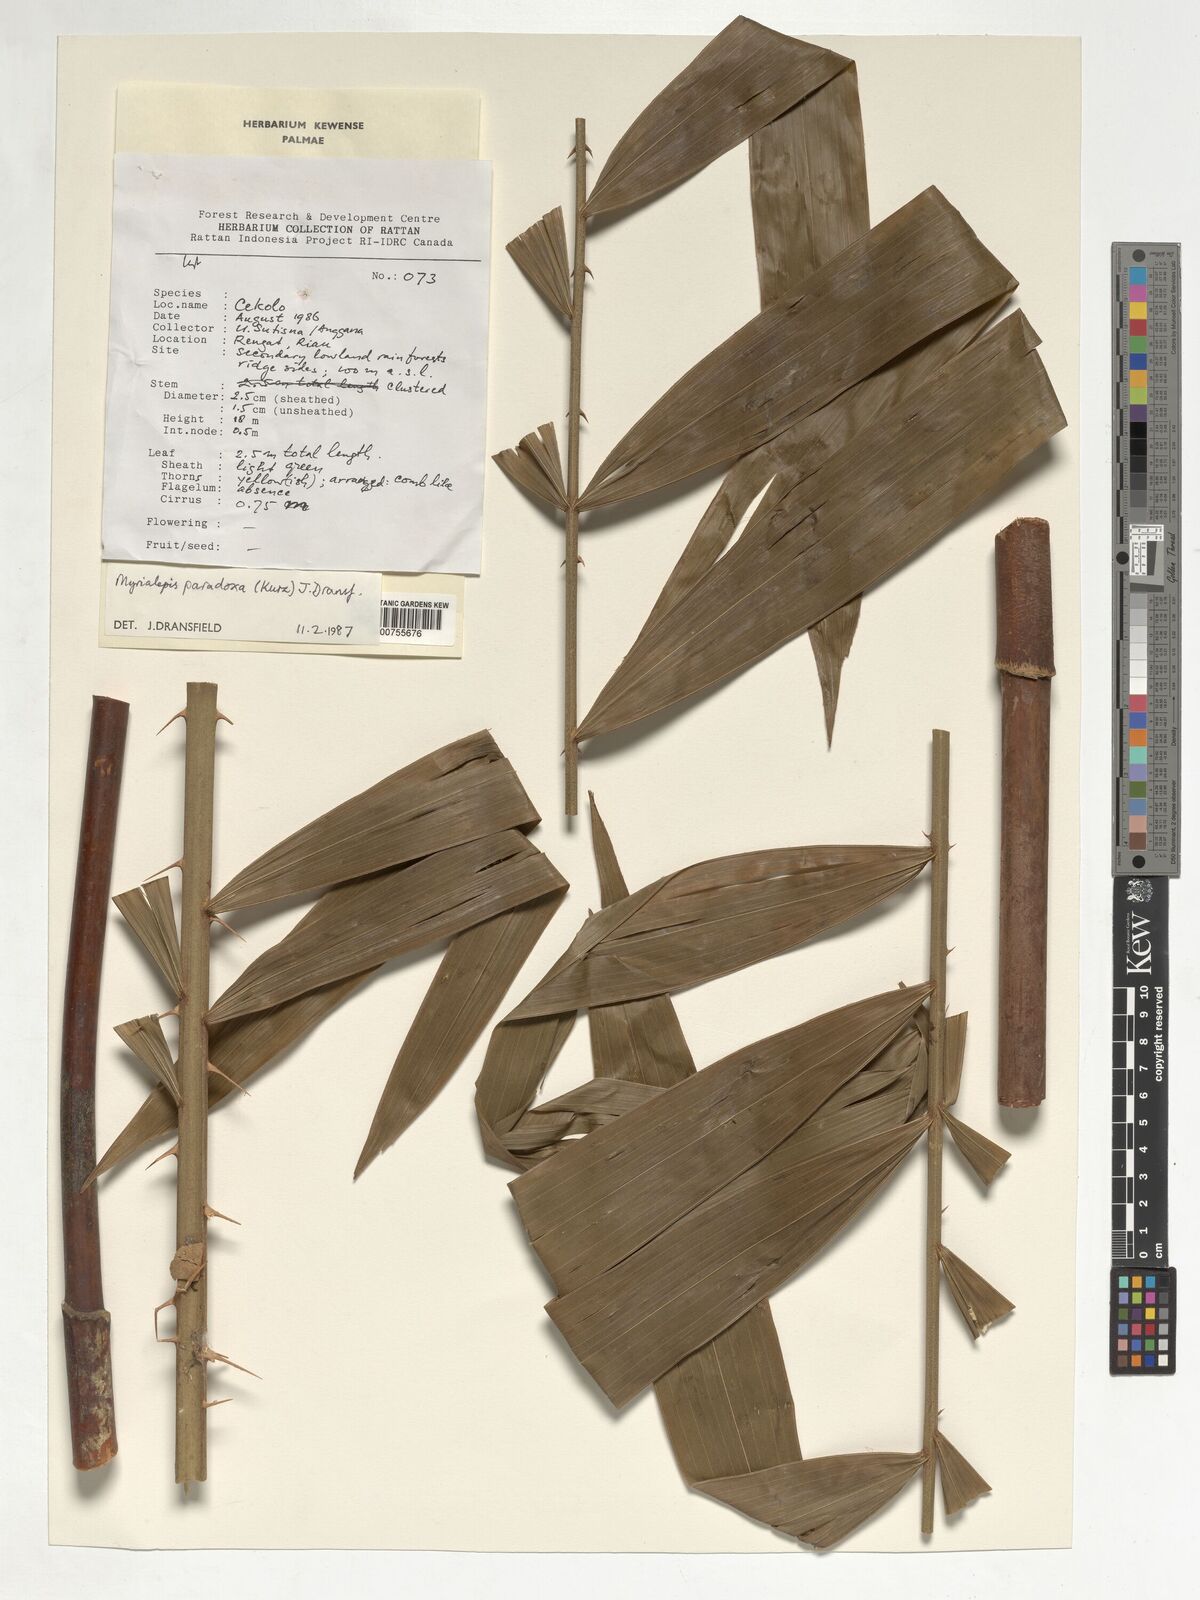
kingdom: Plantae
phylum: Tracheophyta
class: Liliopsida
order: Arecales
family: Arecaceae
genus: Myrialepis
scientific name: Myrialepis paradoxa
